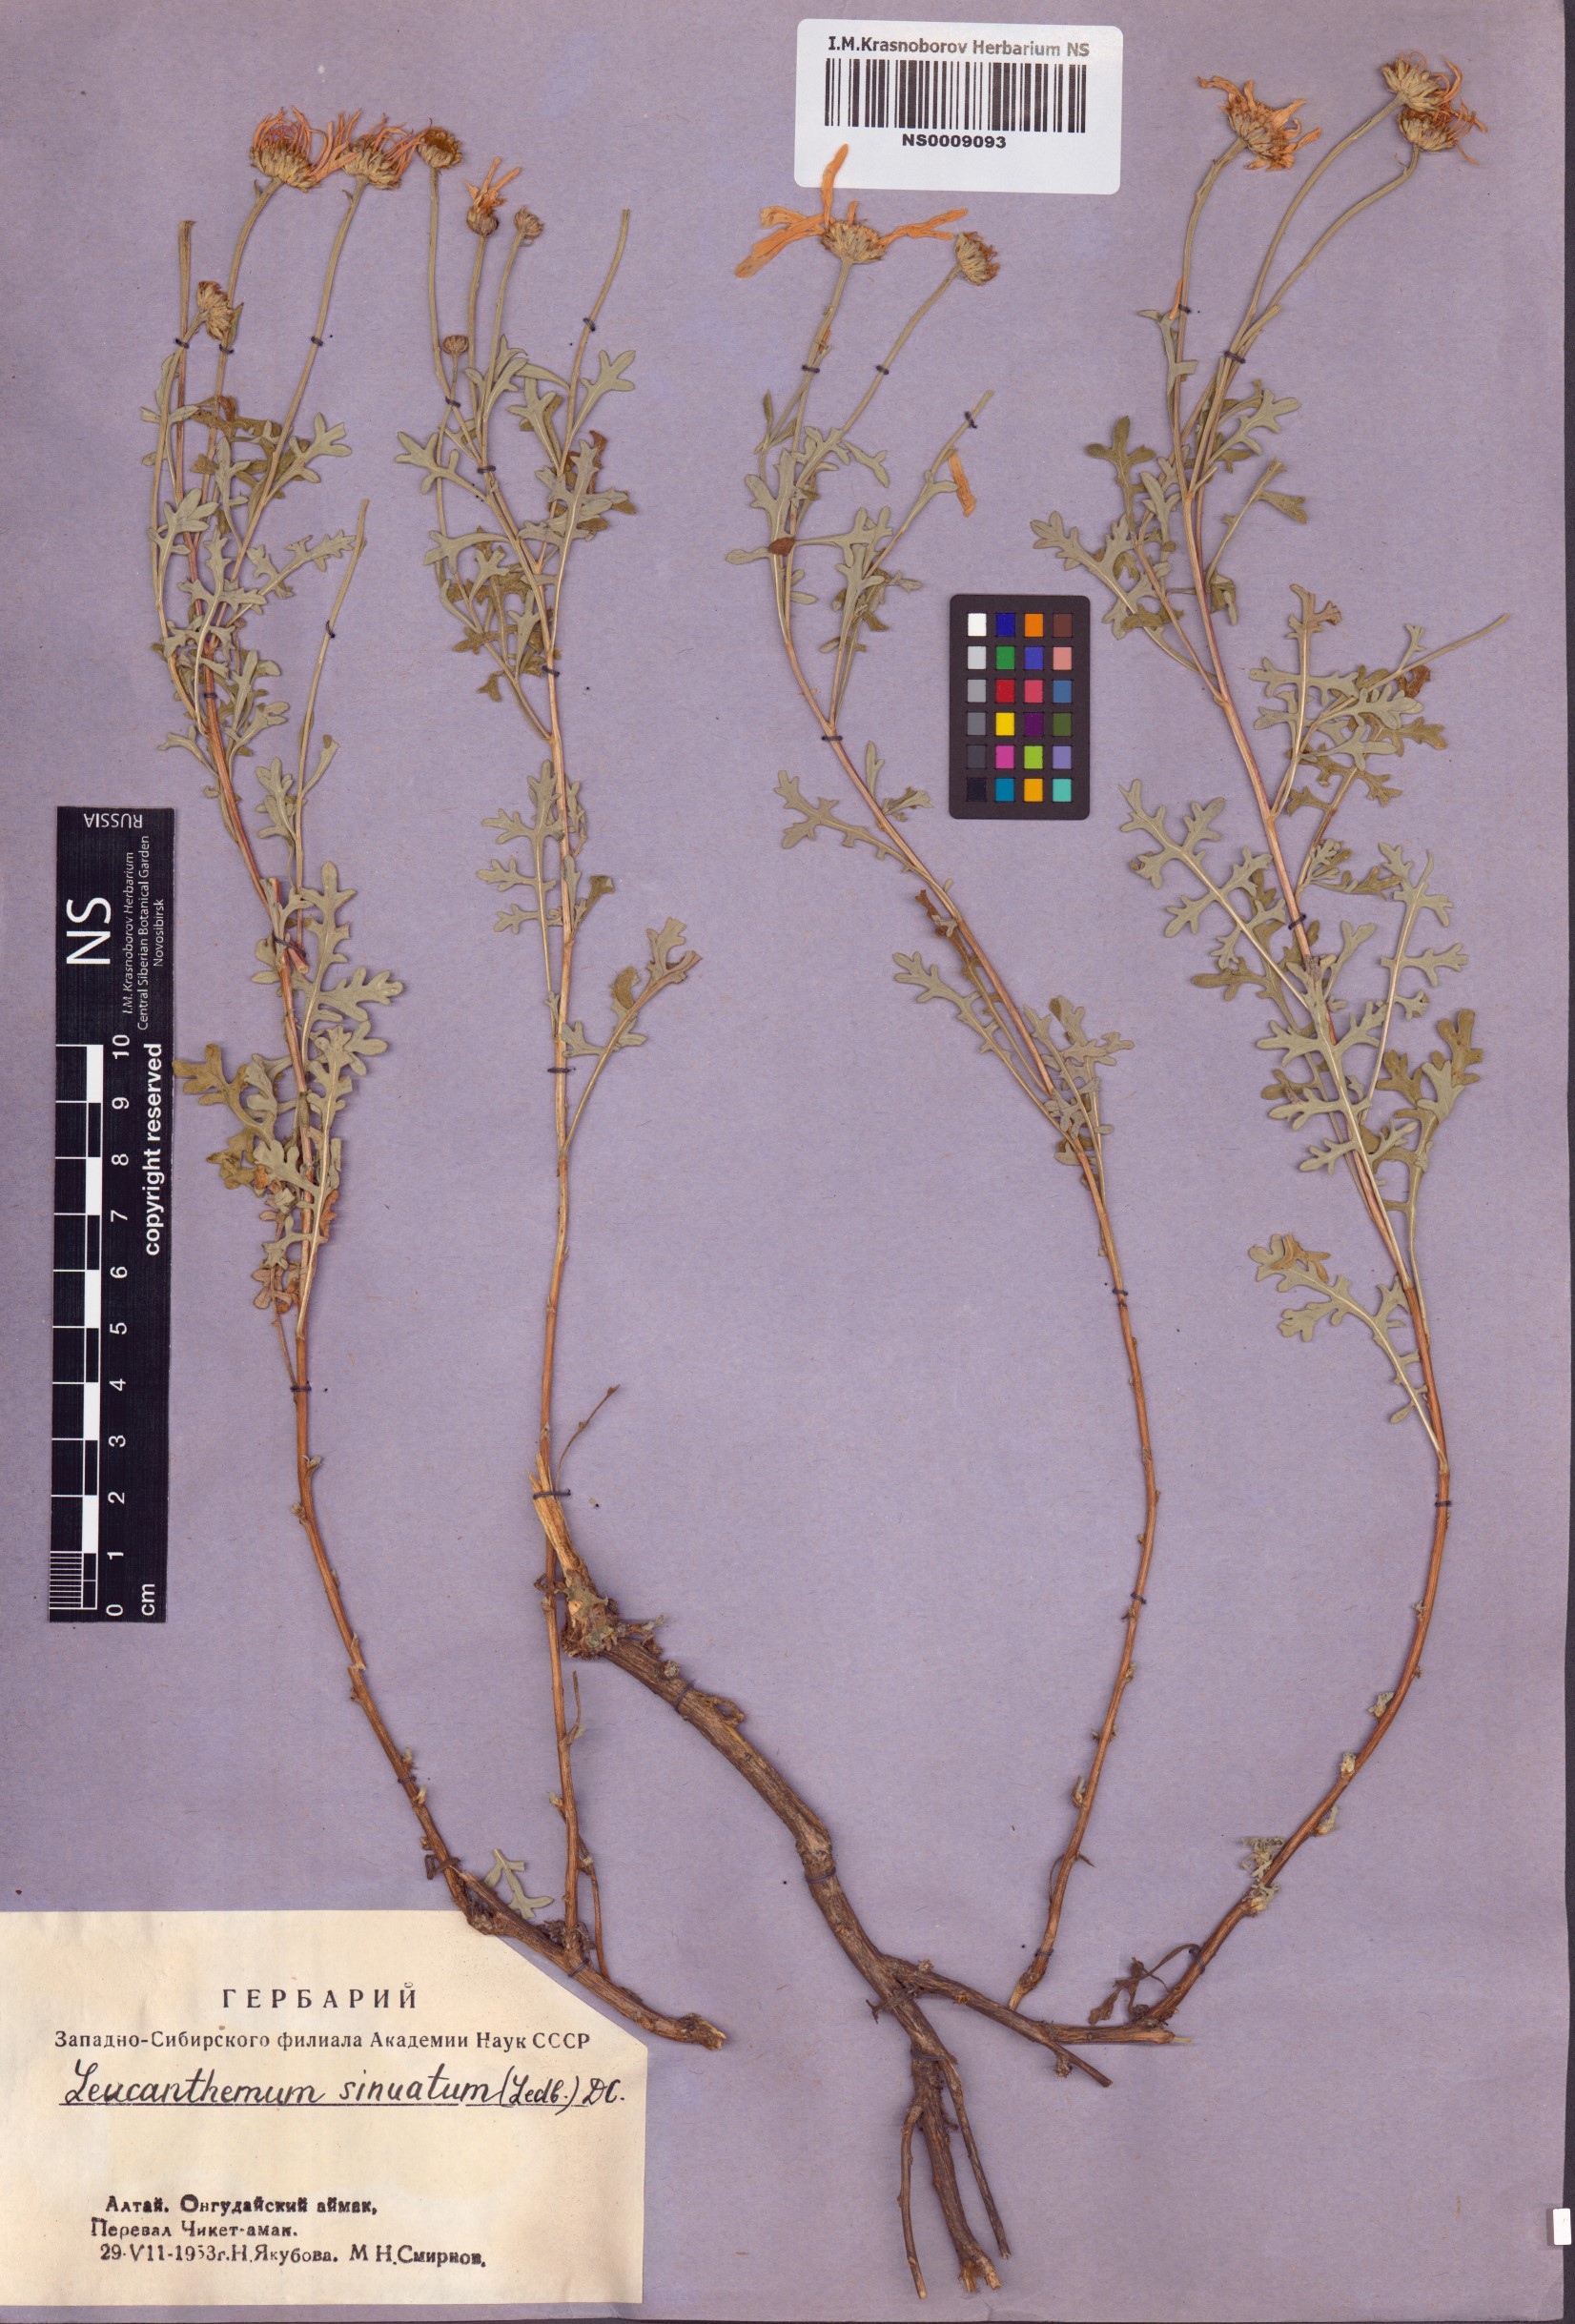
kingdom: Plantae
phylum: Tracheophyta
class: Magnoliopsida
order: Asterales
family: Asteraceae
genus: Chrysanthemum
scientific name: Chrysanthemum sinuatum
